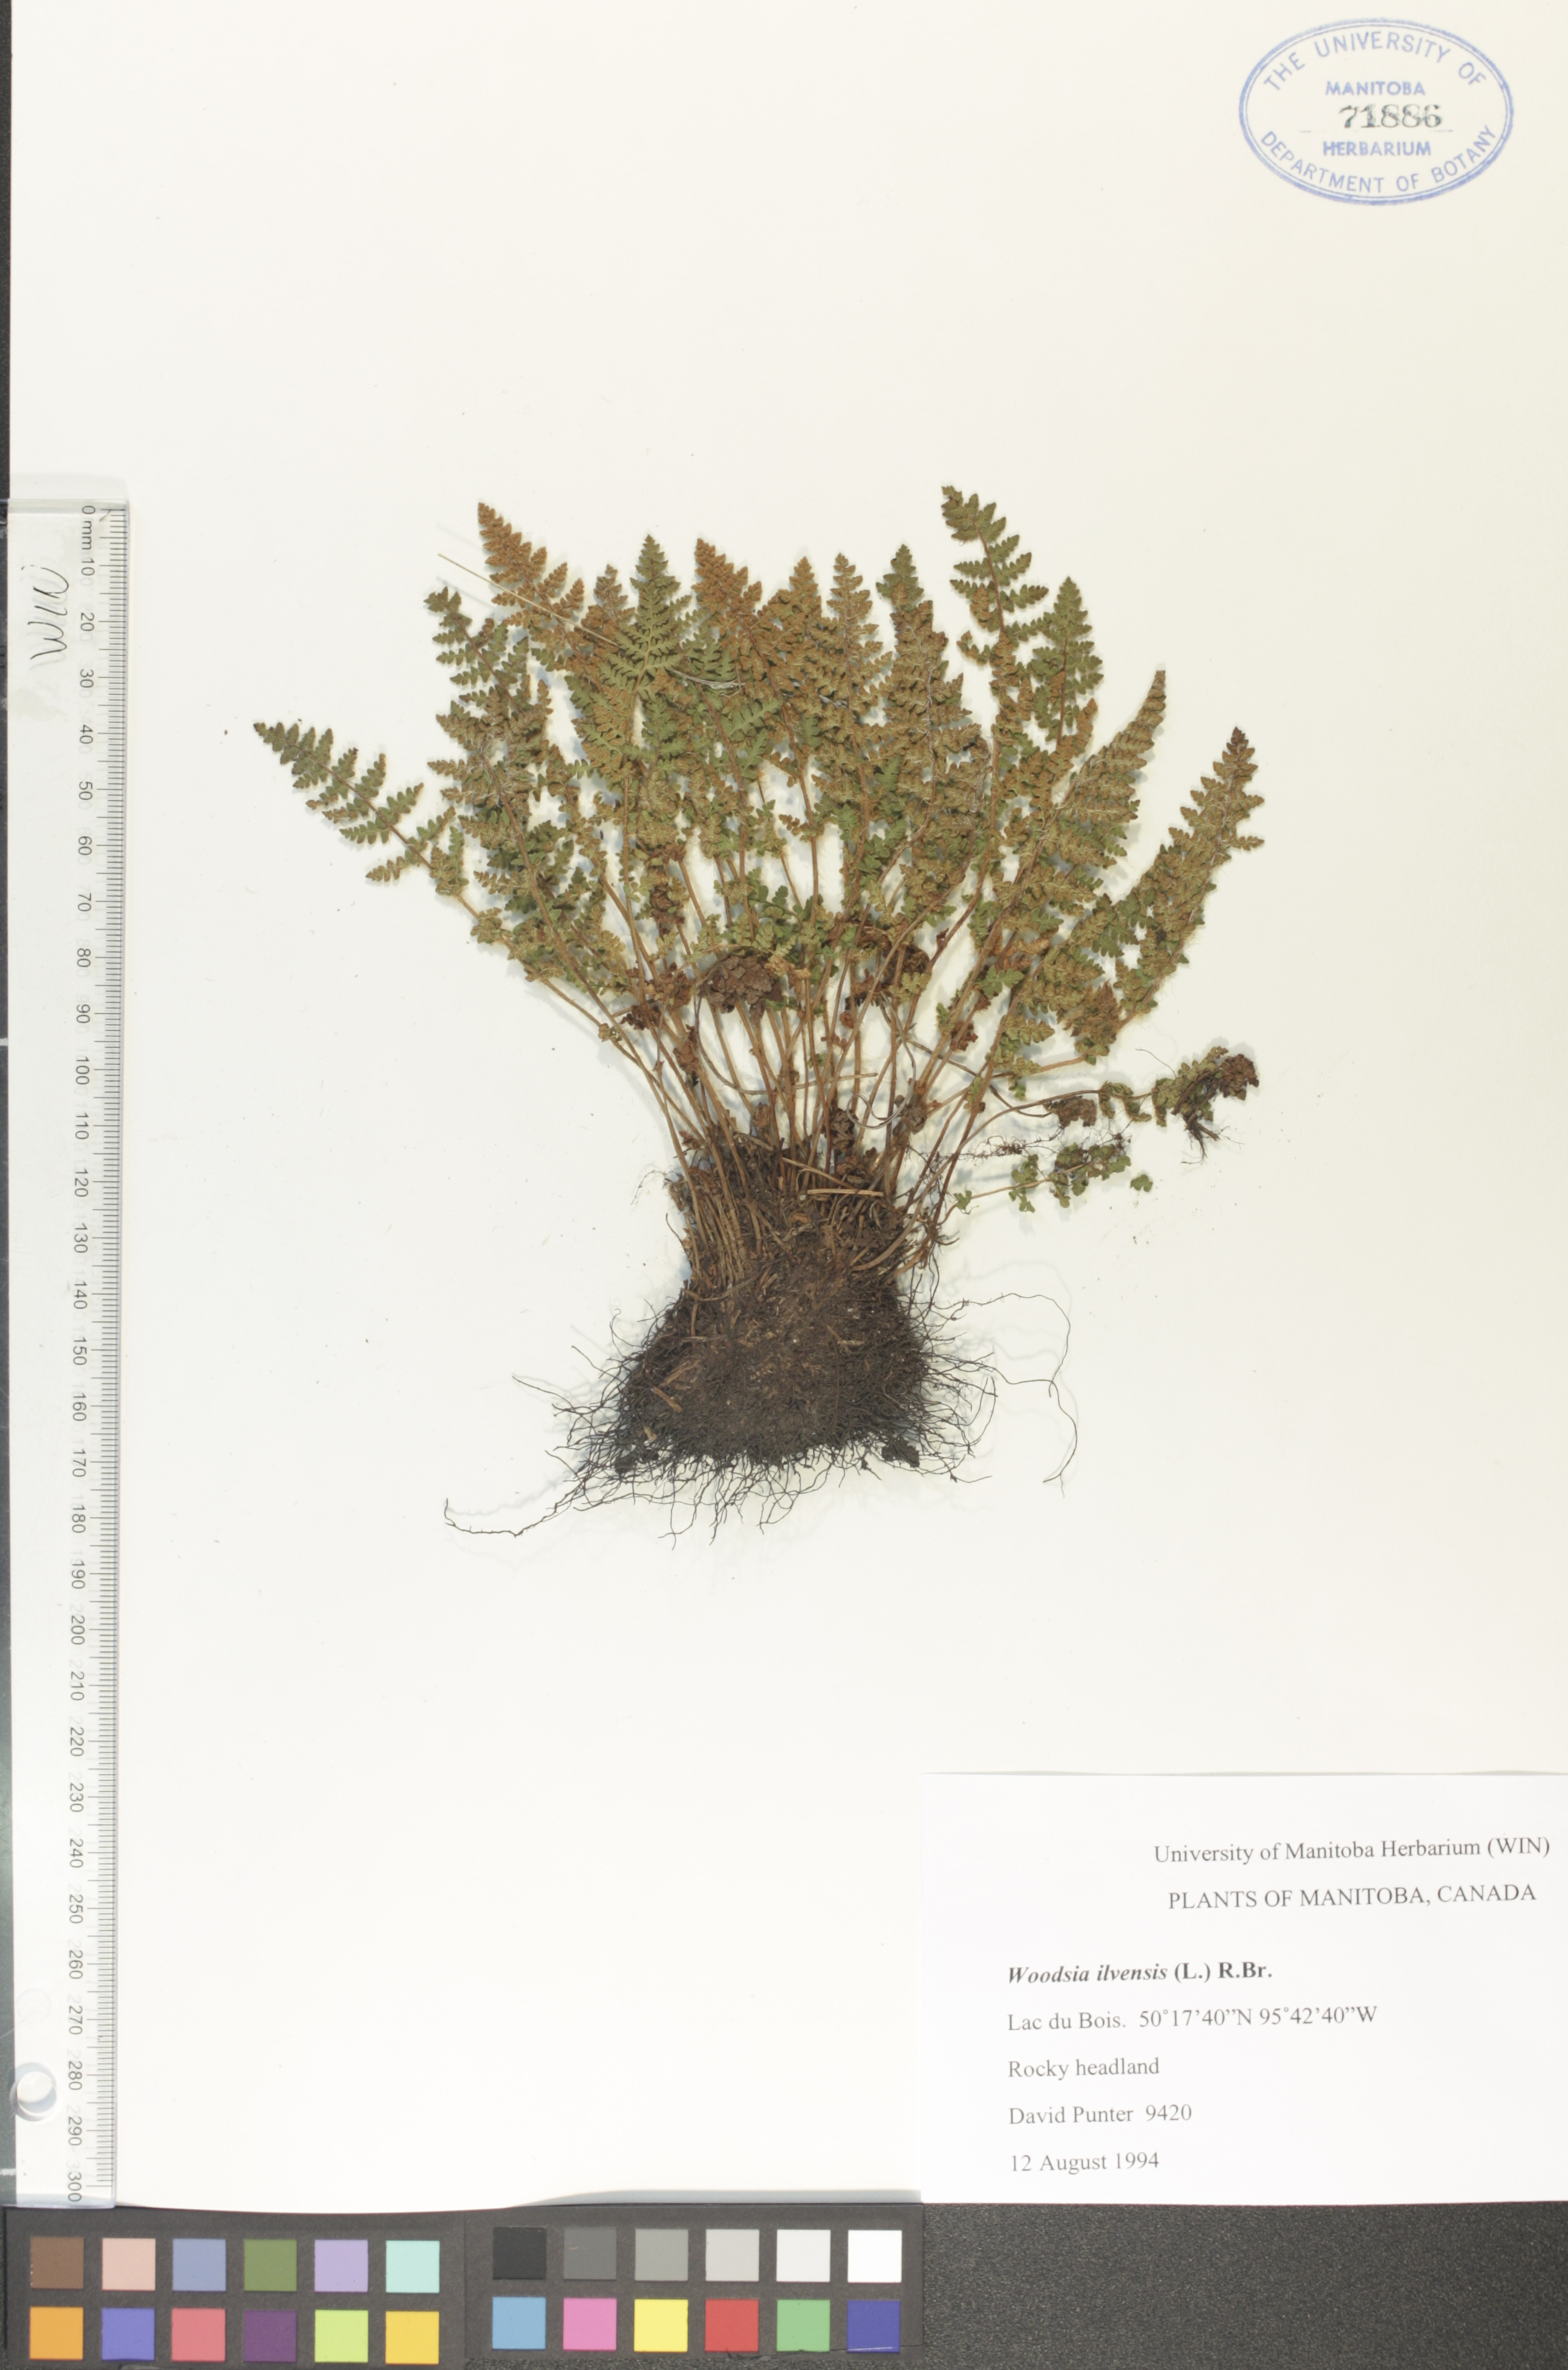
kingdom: Plantae
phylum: Tracheophyta
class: Polypodiopsida
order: Polypodiales
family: Woodsiaceae
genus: Woodsia
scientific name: Woodsia ilvensis
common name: Fragrant woodsia
